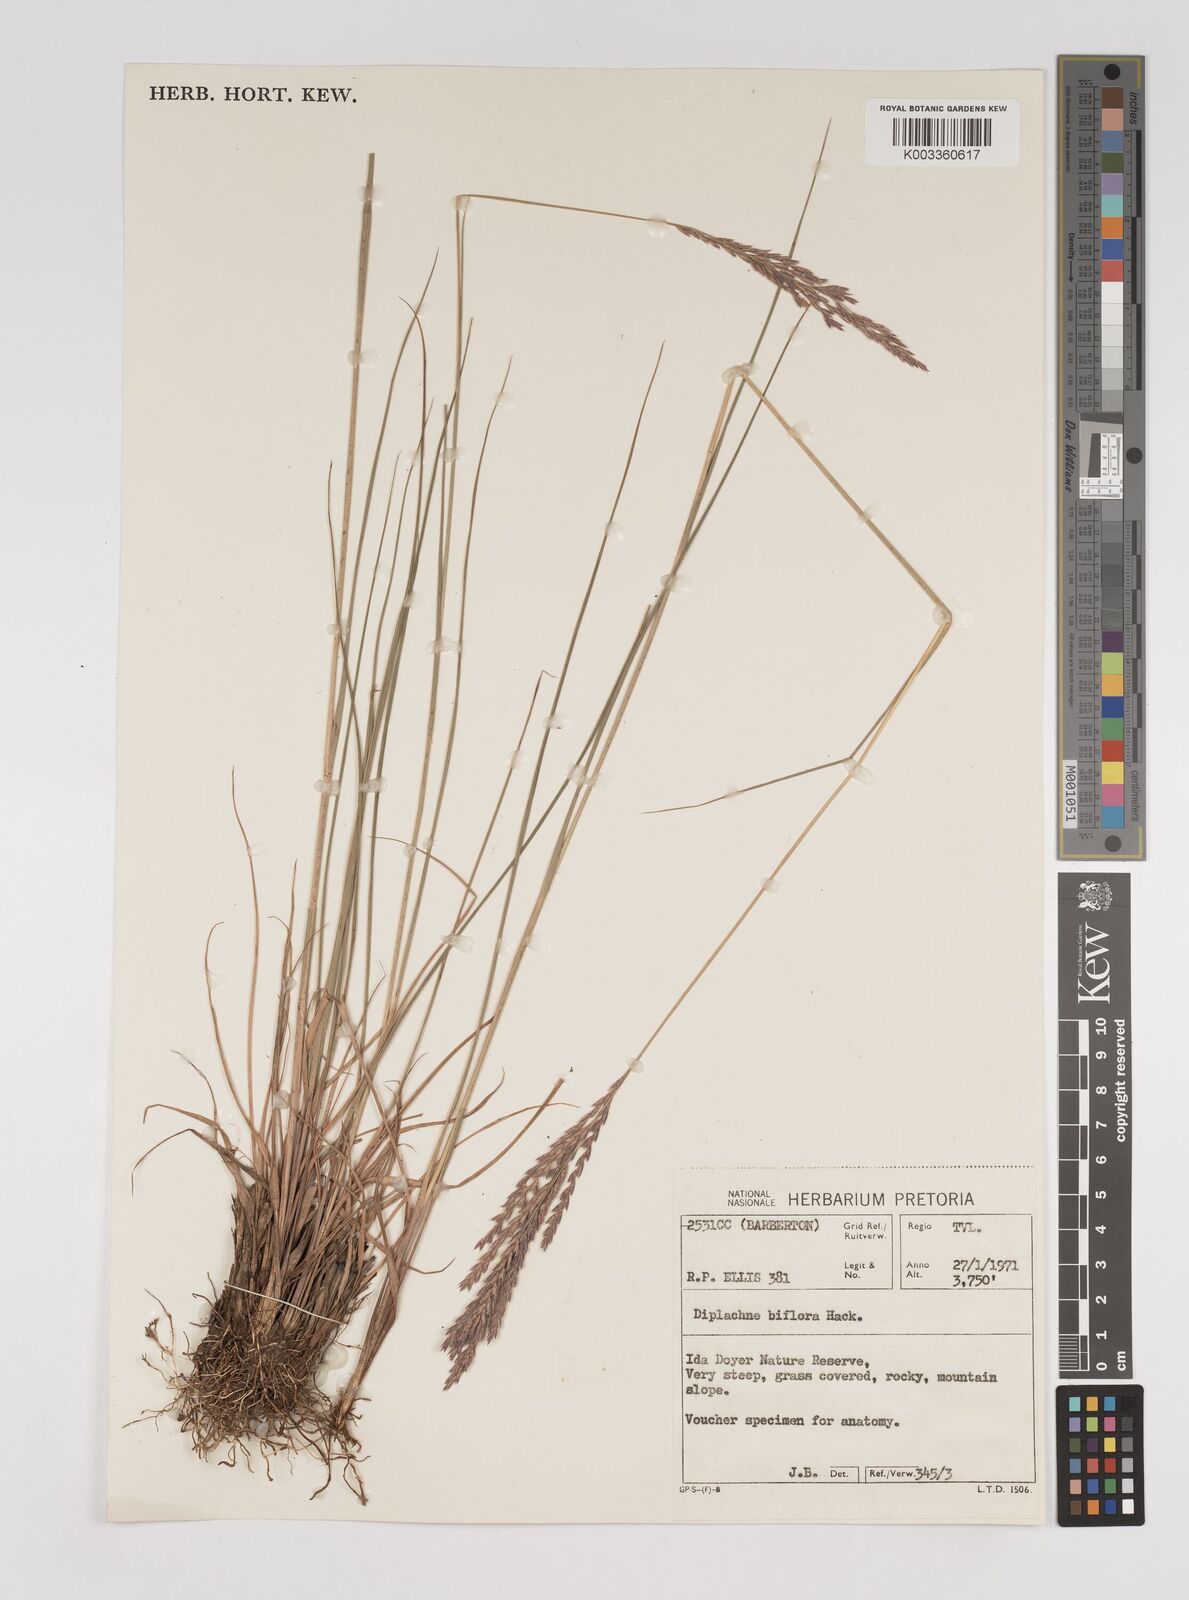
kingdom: Plantae
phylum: Tracheophyta
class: Liliopsida
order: Poales
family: Poaceae
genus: Bewsia
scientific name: Bewsia biflora
